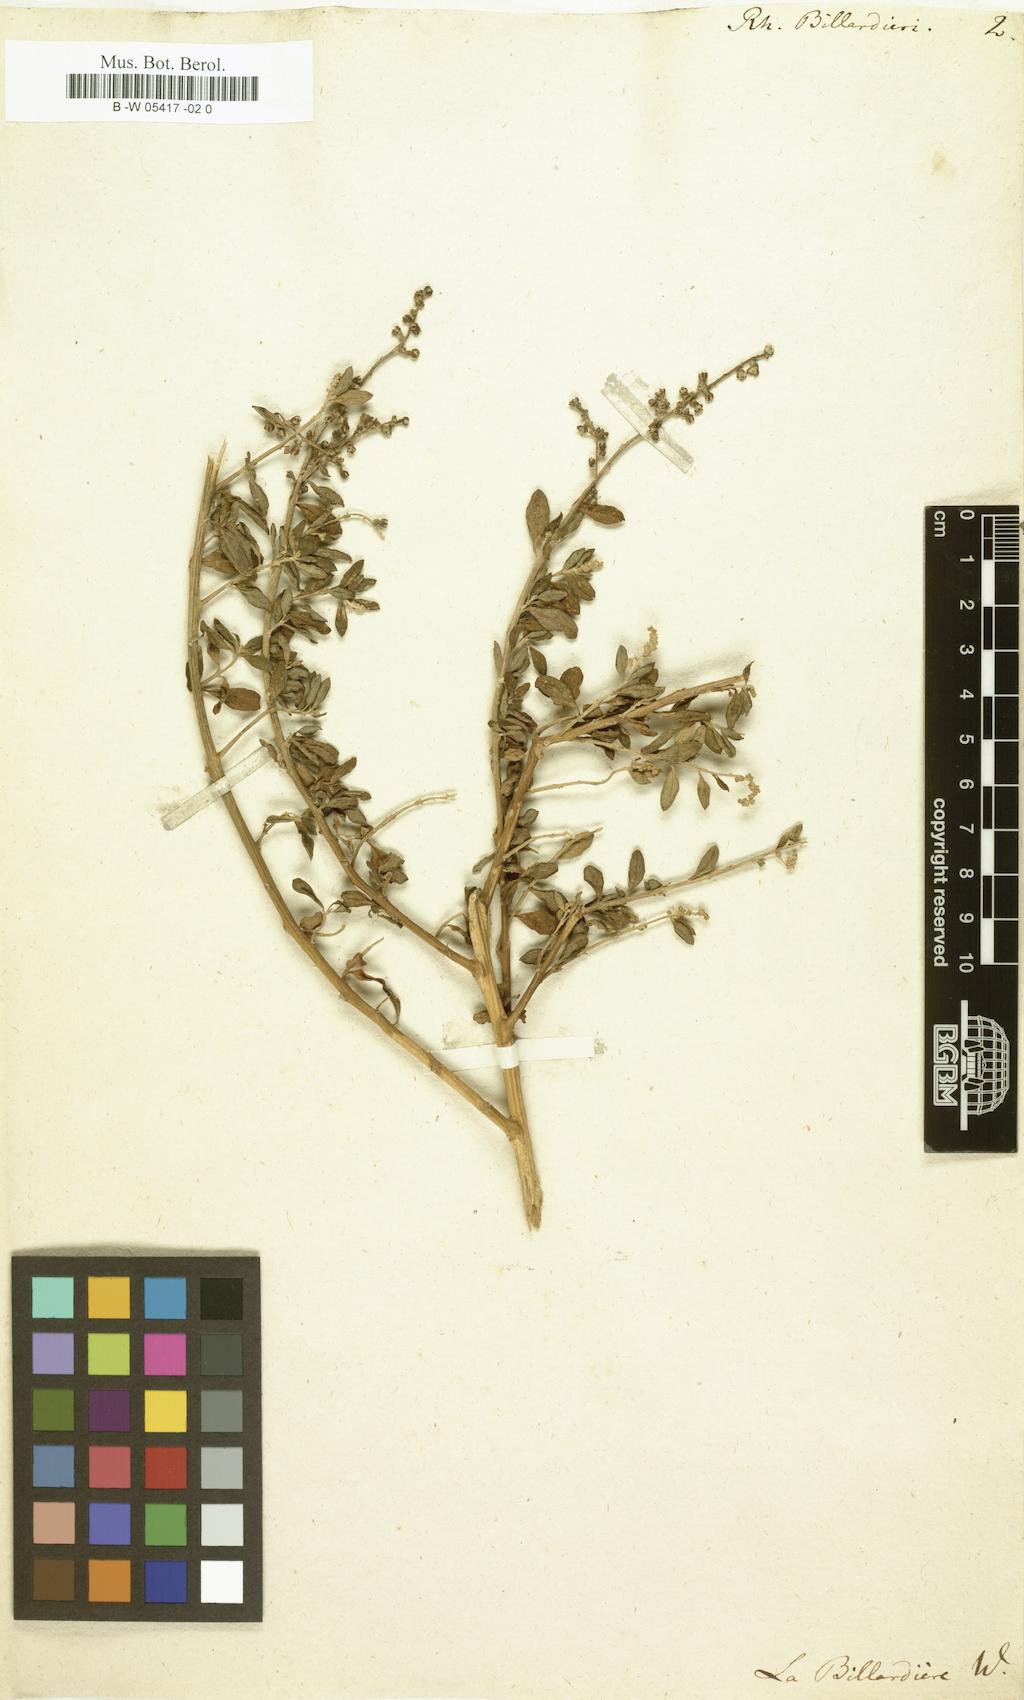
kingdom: Plantae
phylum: Tracheophyta
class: Magnoliopsida
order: Caryophyllales
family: Amaranthaceae
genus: Chenopodium
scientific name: Chenopodium baccatum
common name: Coastal-saltbush
